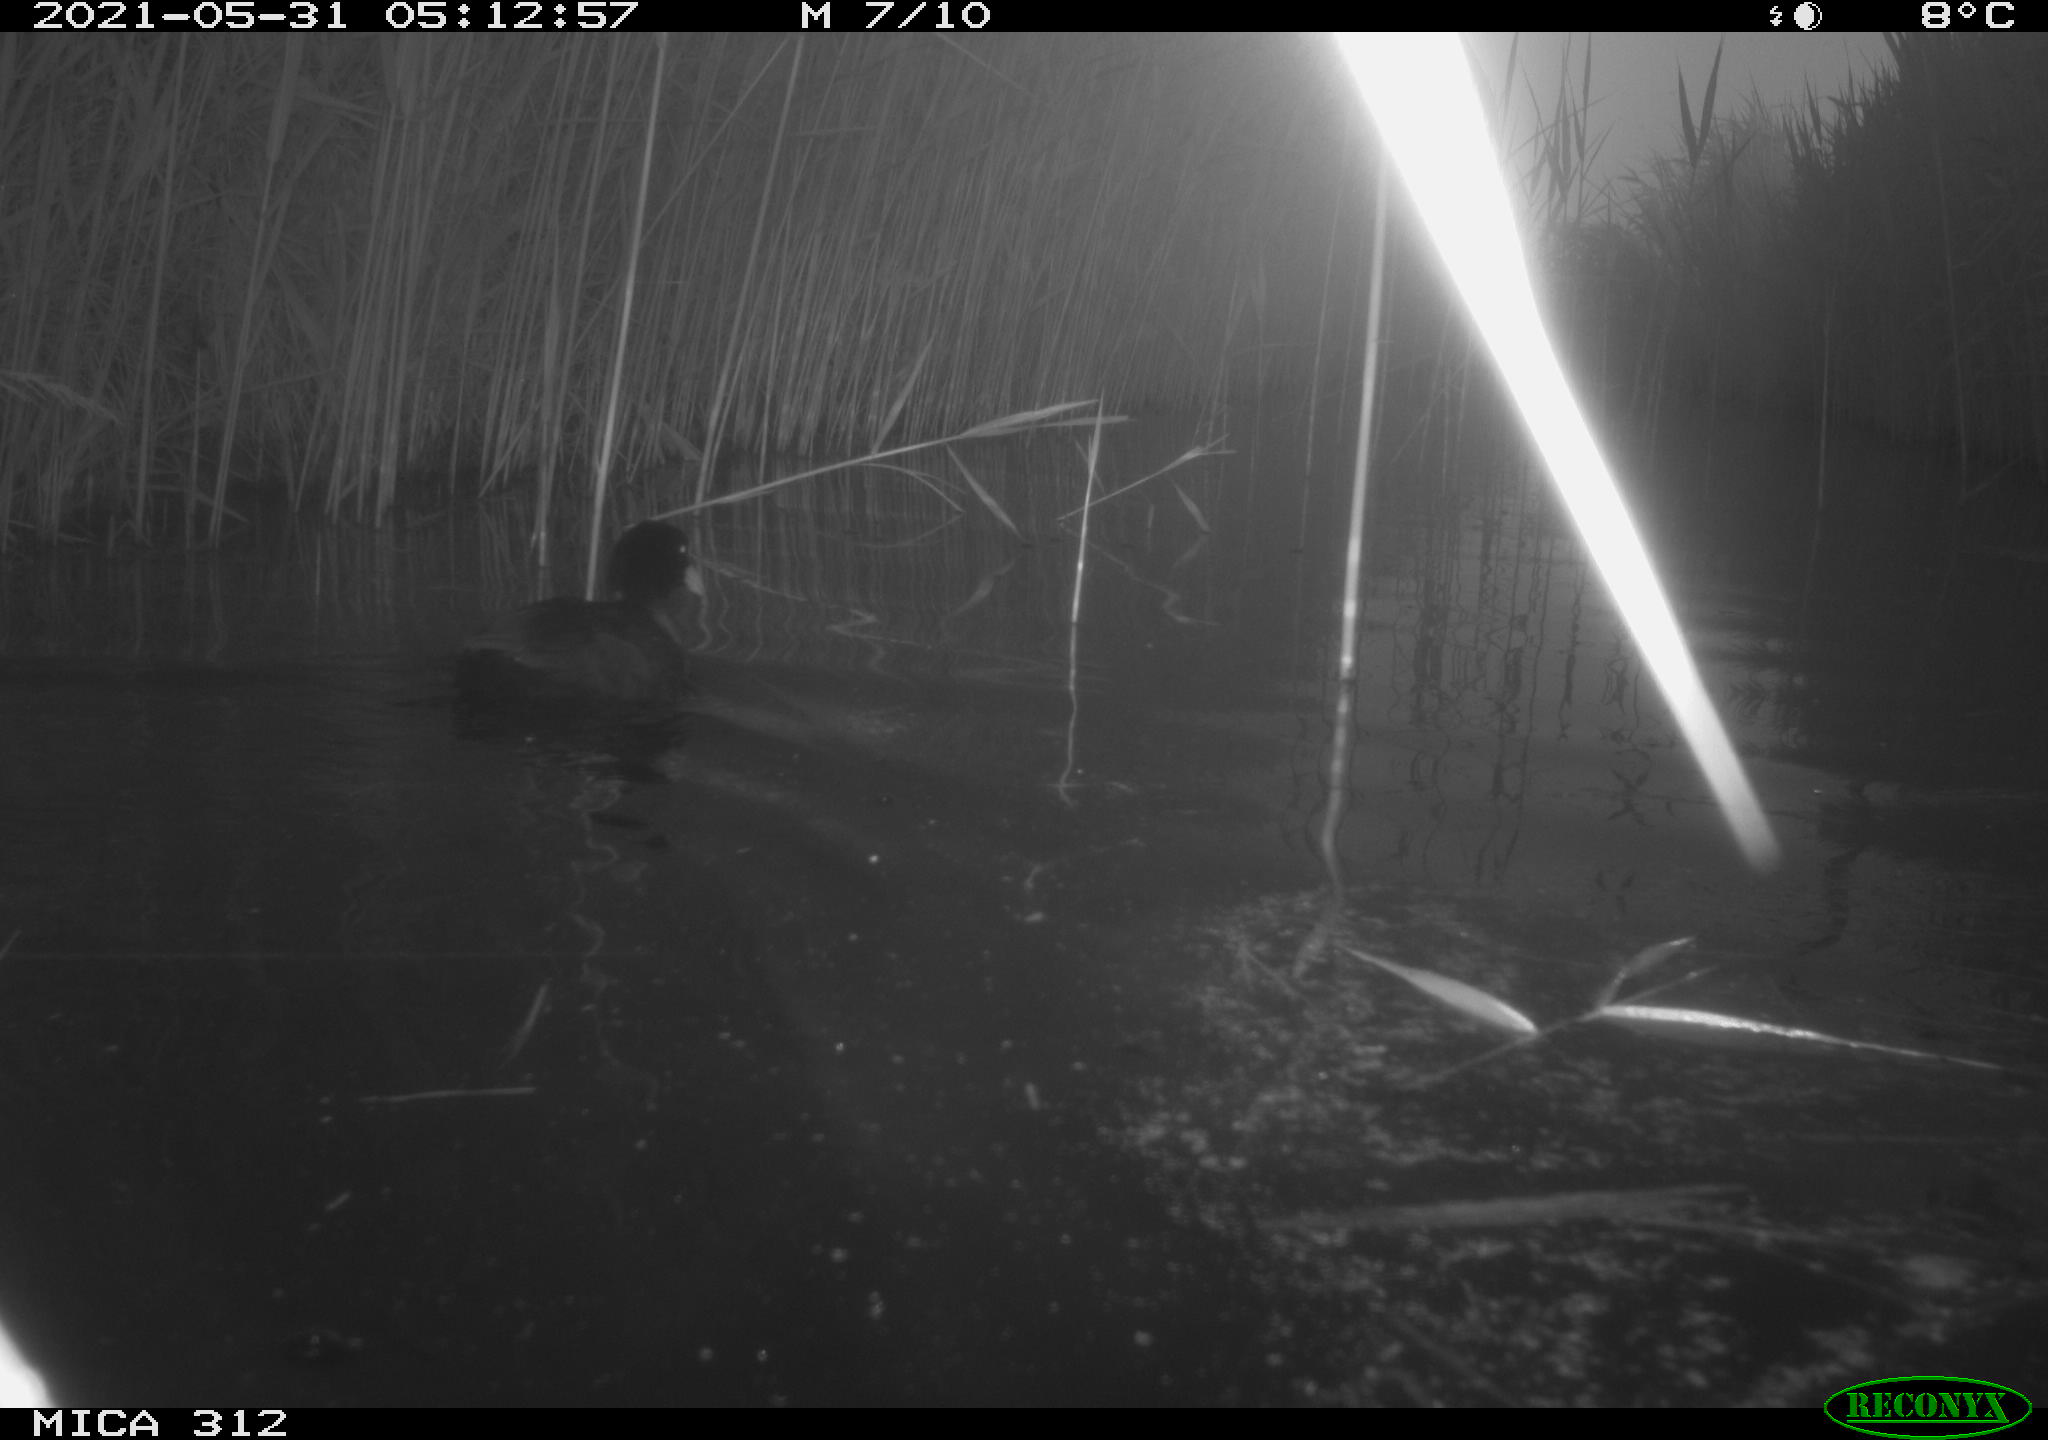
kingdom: Animalia
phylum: Chordata
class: Aves
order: Gruiformes
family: Rallidae
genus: Fulica
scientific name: Fulica atra
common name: Eurasian coot
